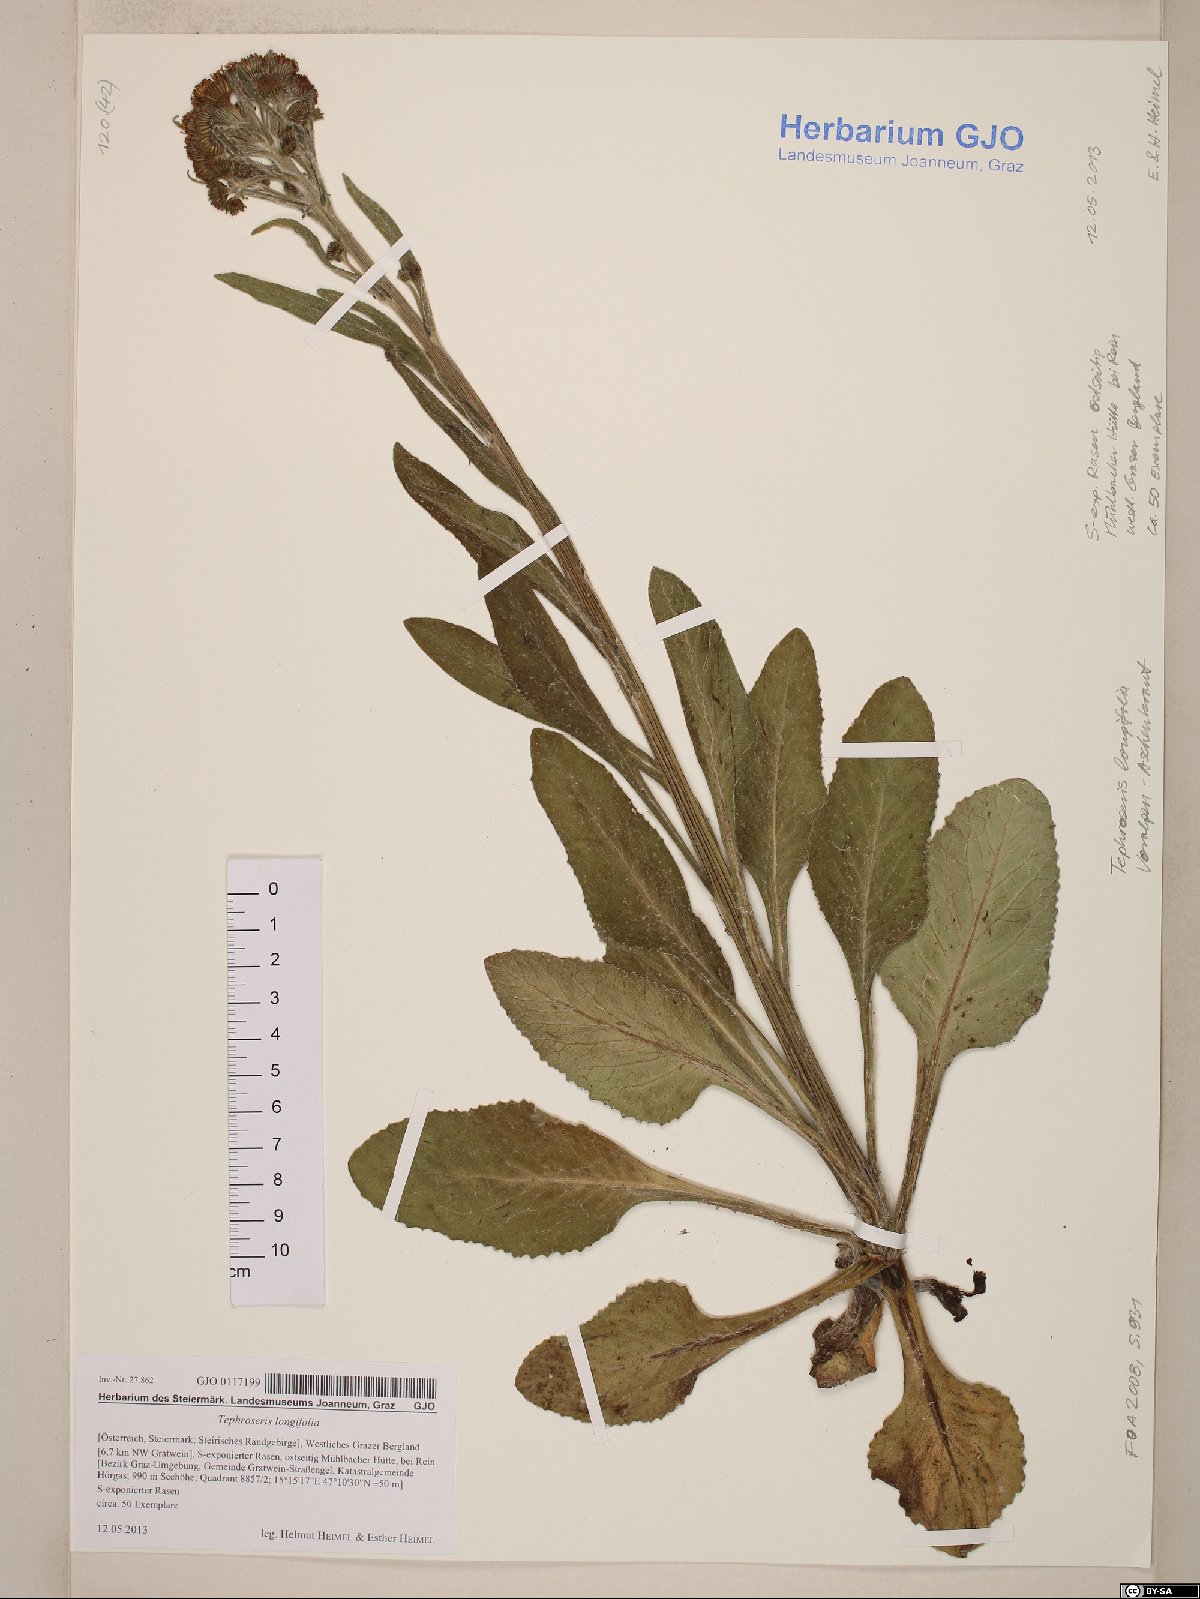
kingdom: Plantae
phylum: Tracheophyta
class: Magnoliopsida
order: Asterales
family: Asteraceae
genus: Tephroseris
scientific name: Tephroseris longifolia
